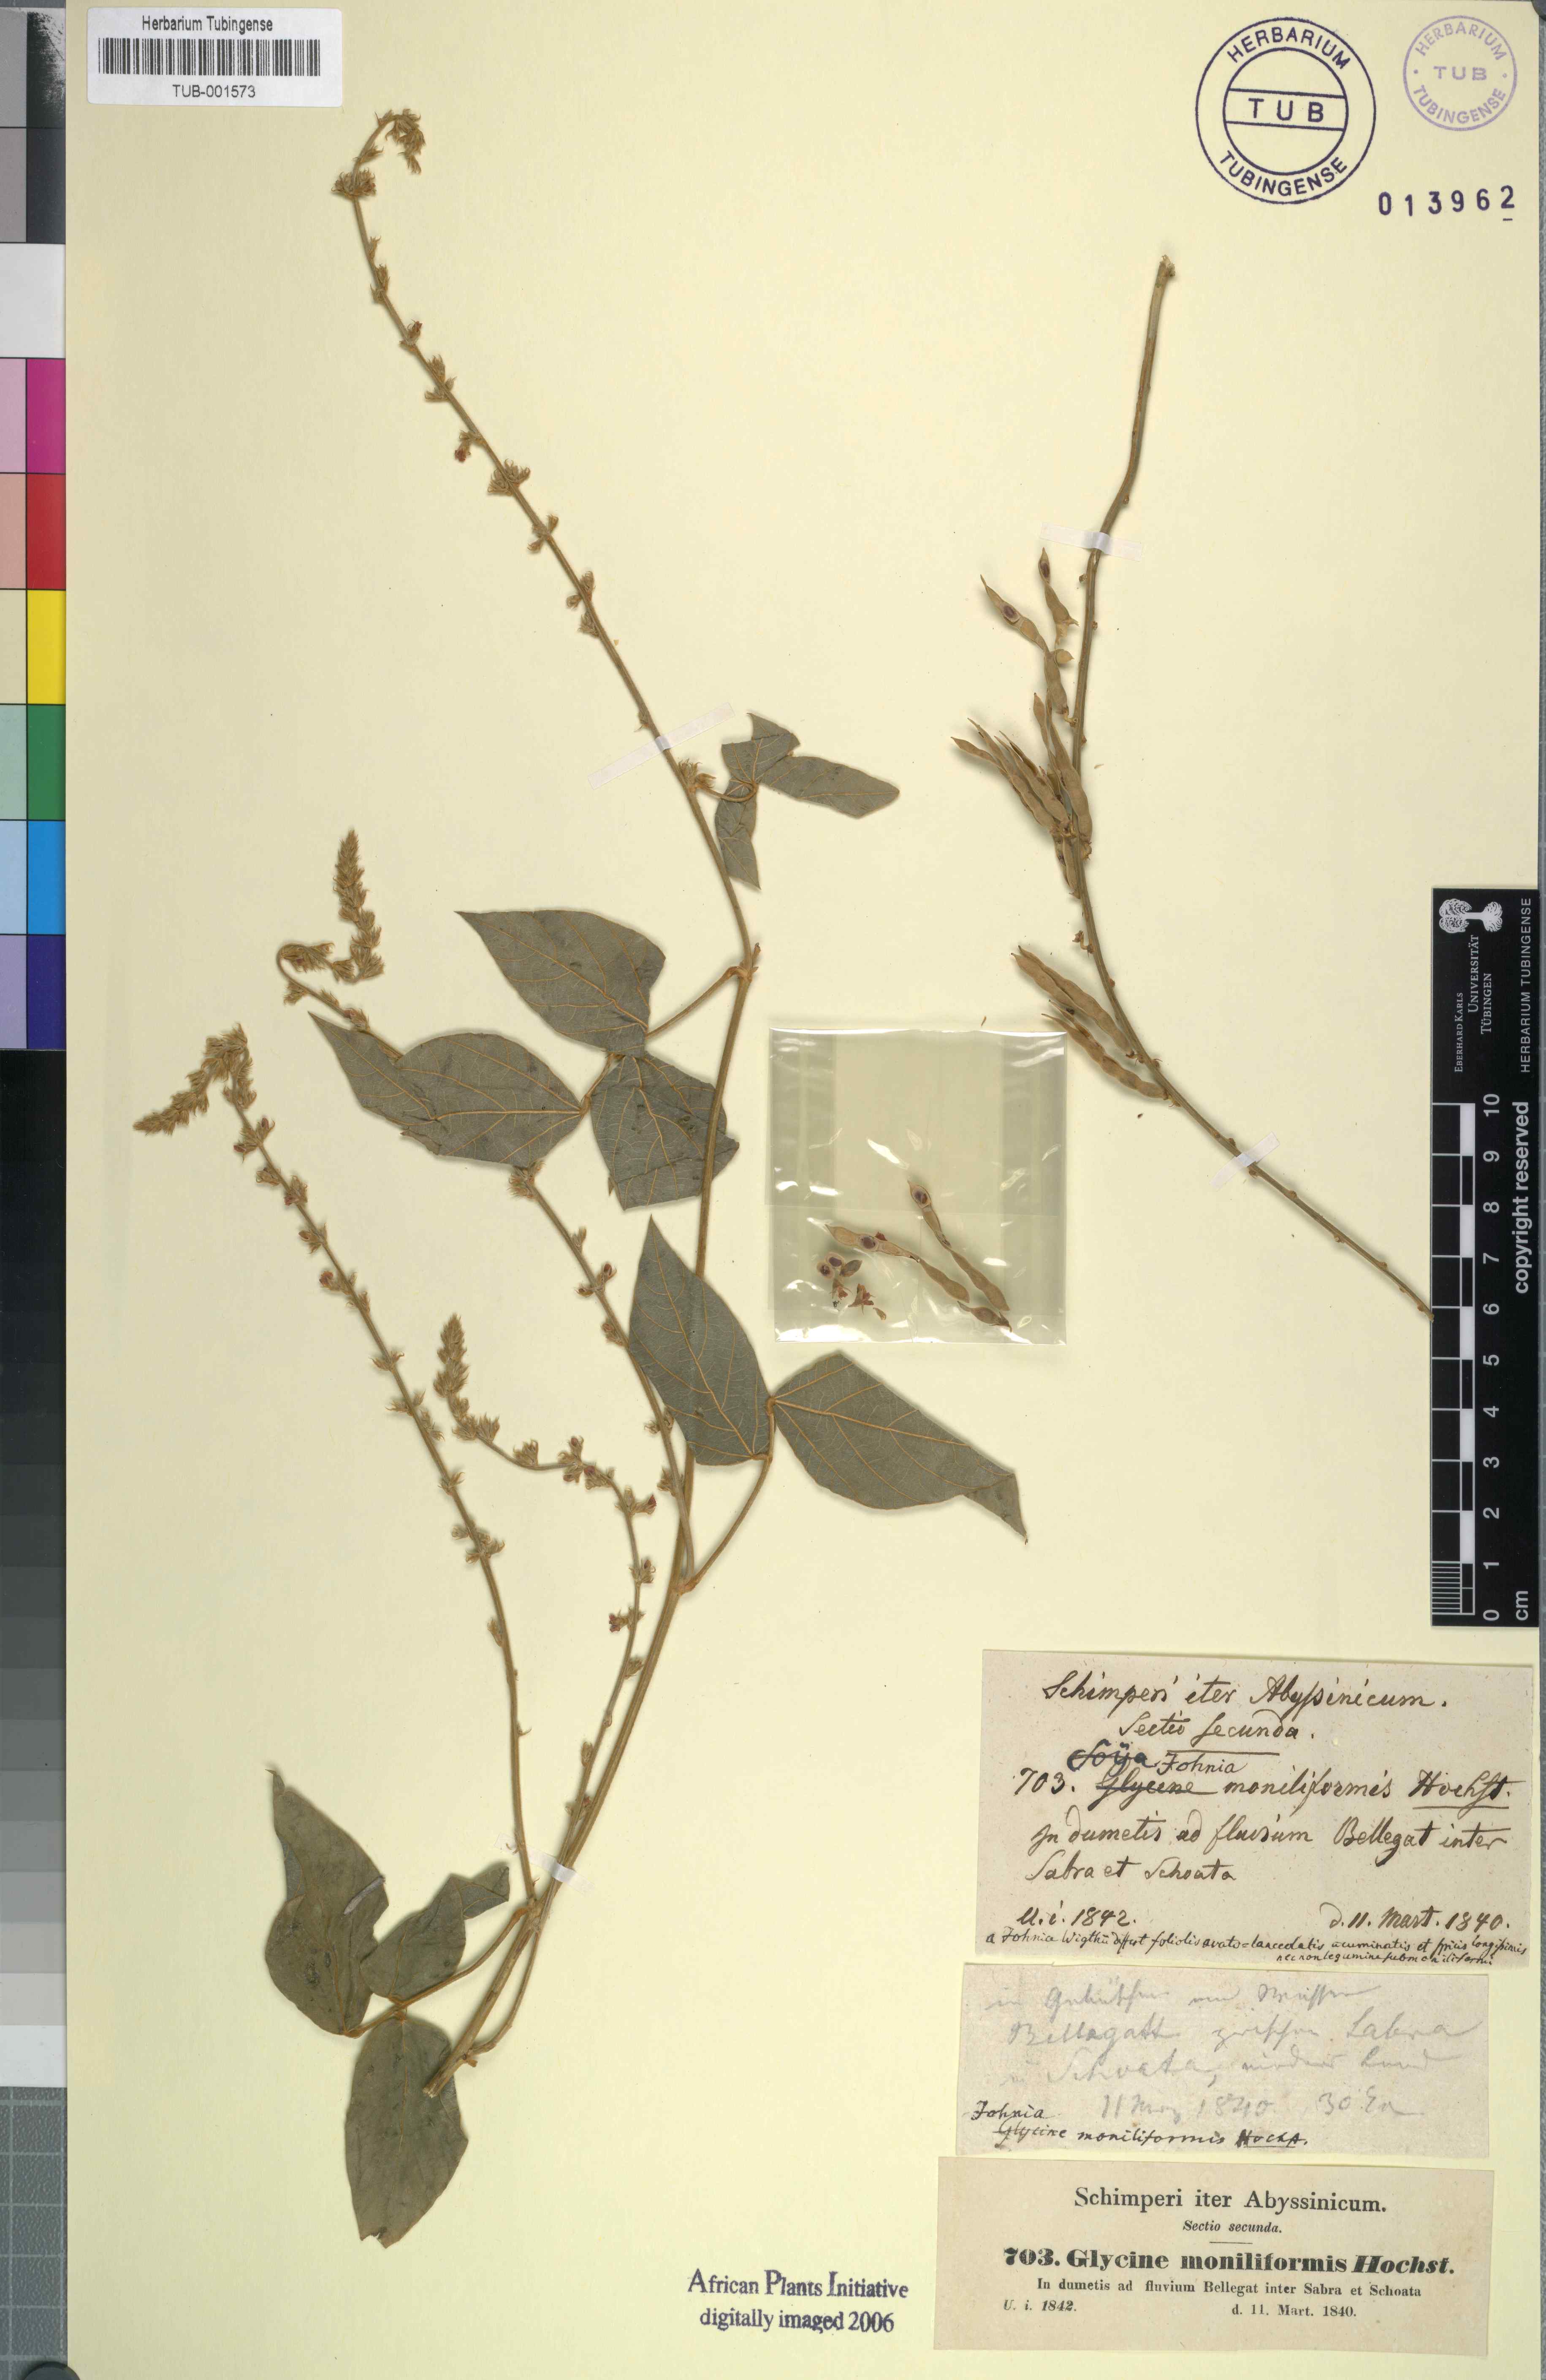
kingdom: Plantae
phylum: Tracheophyta
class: Magnoliopsida
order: Fabales
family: Fabaceae
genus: Pueraria
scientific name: Pueraria montana
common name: Kudzu
